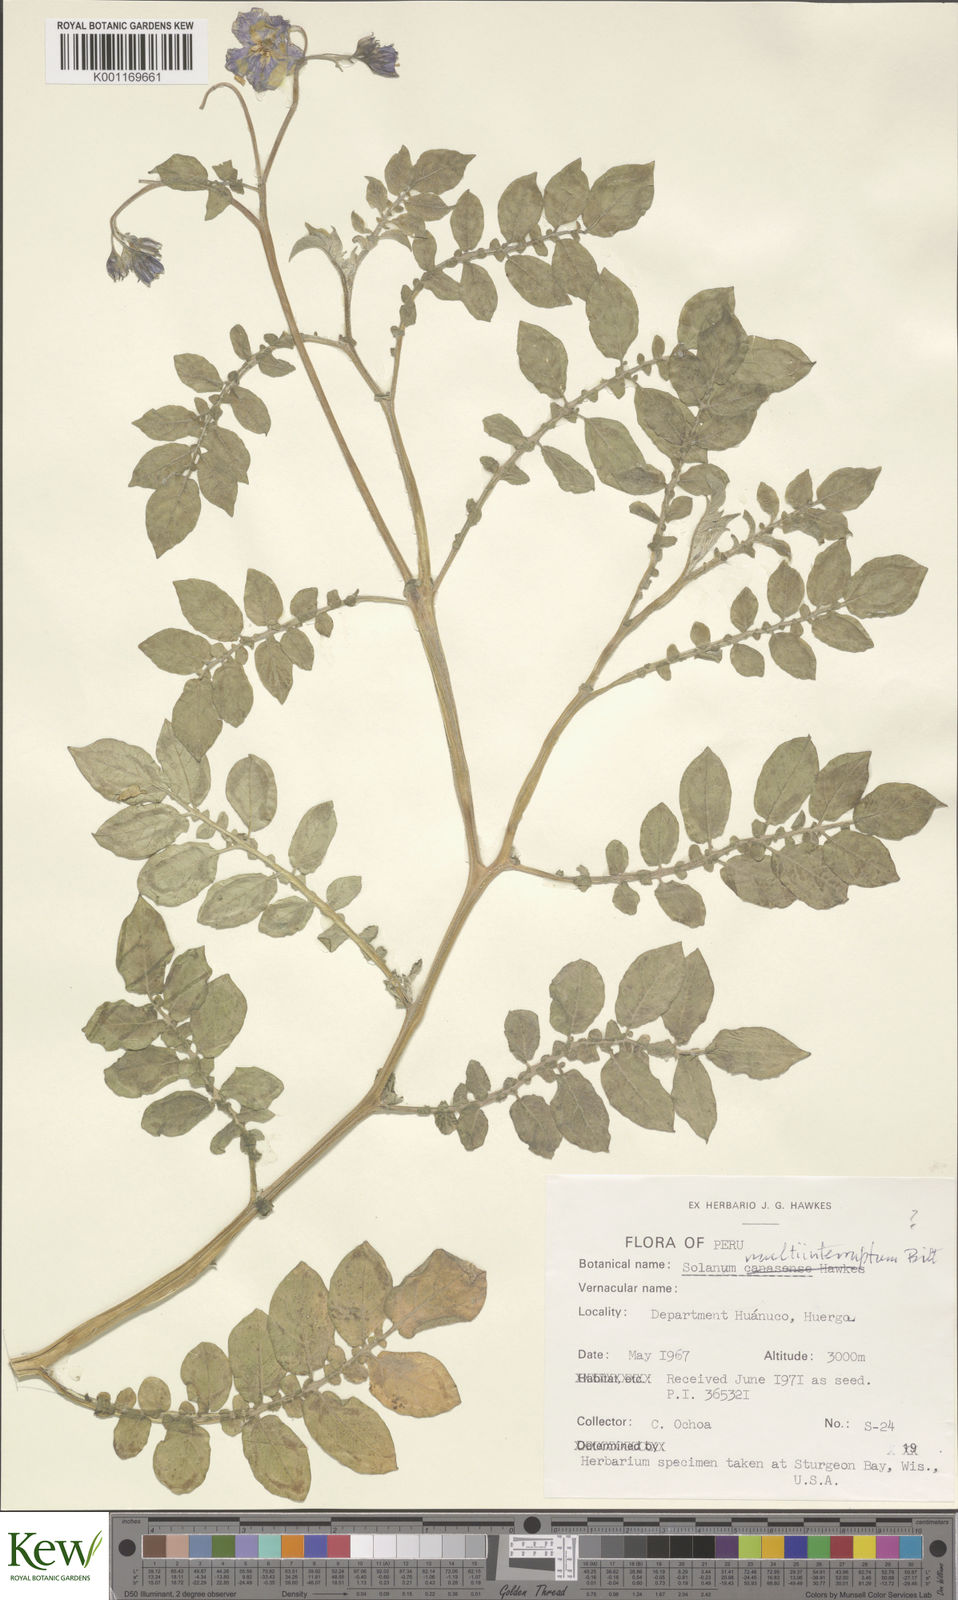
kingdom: Plantae
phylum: Tracheophyta
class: Magnoliopsida
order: Solanales
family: Solanaceae
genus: Solanum
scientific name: Solanum multiinterruptum
